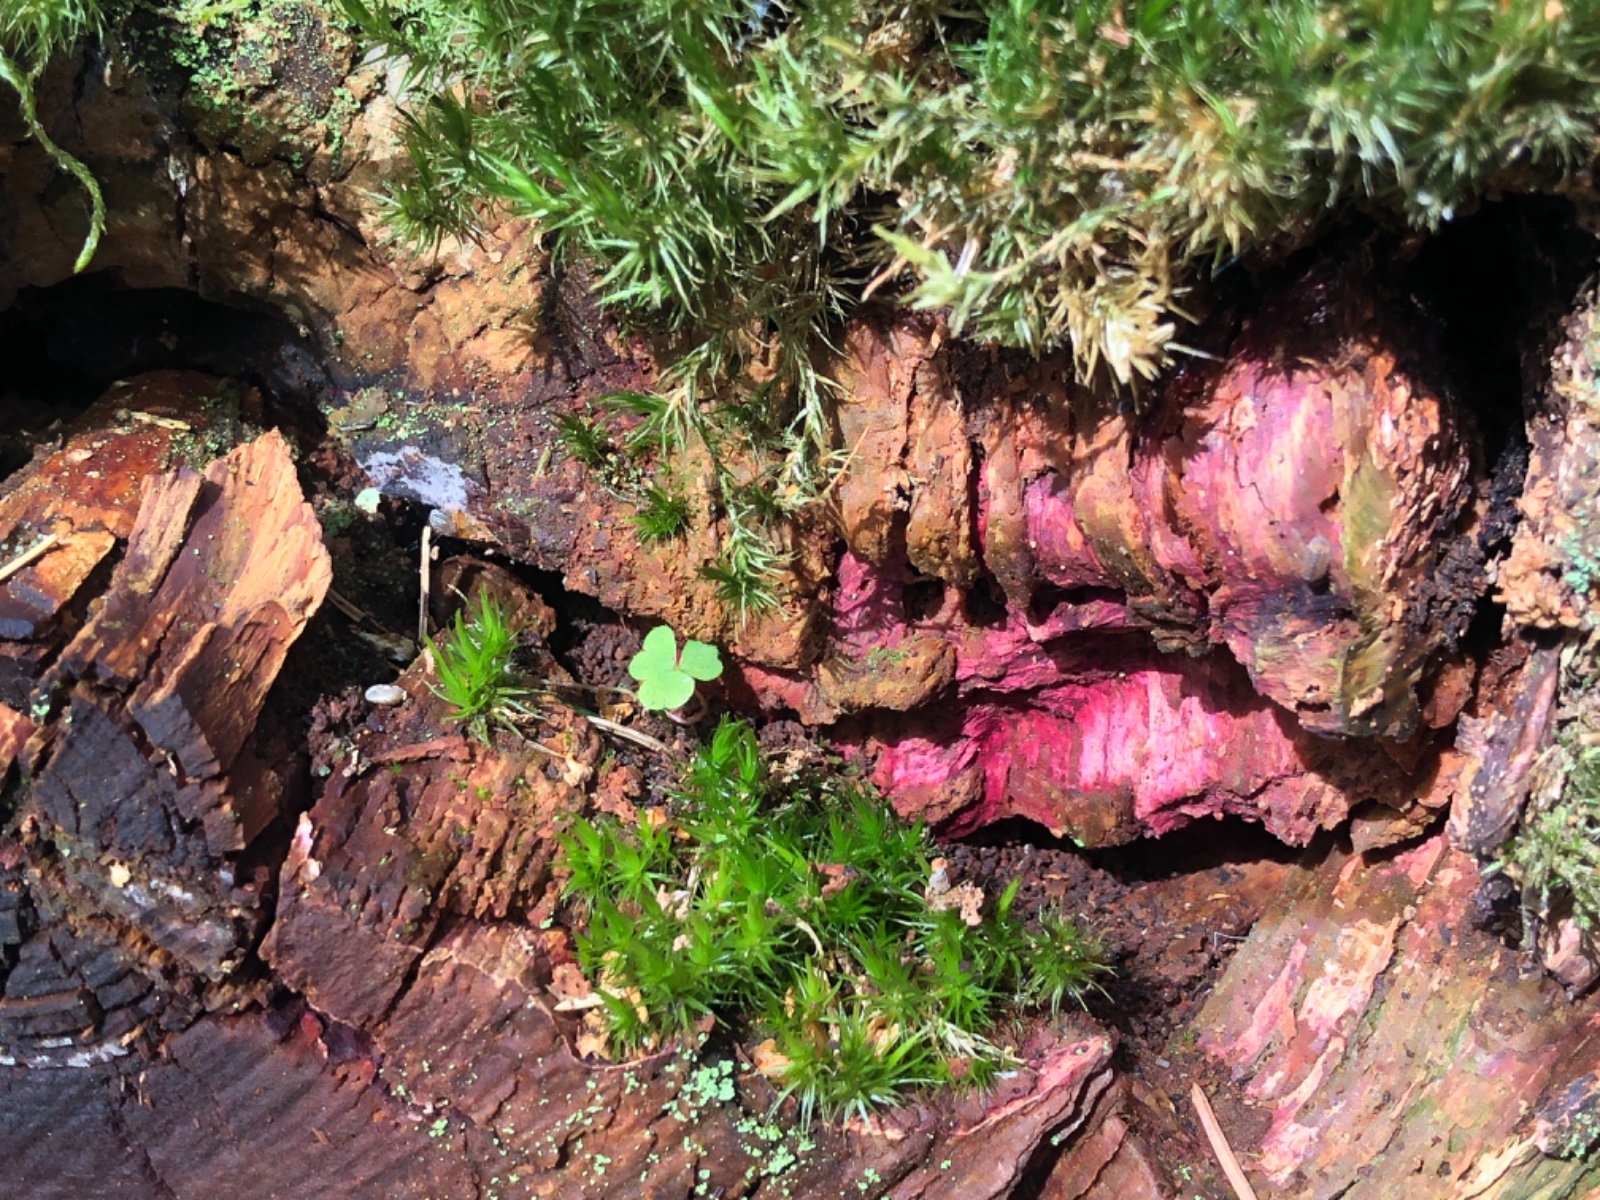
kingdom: Fungi
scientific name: Fungi
